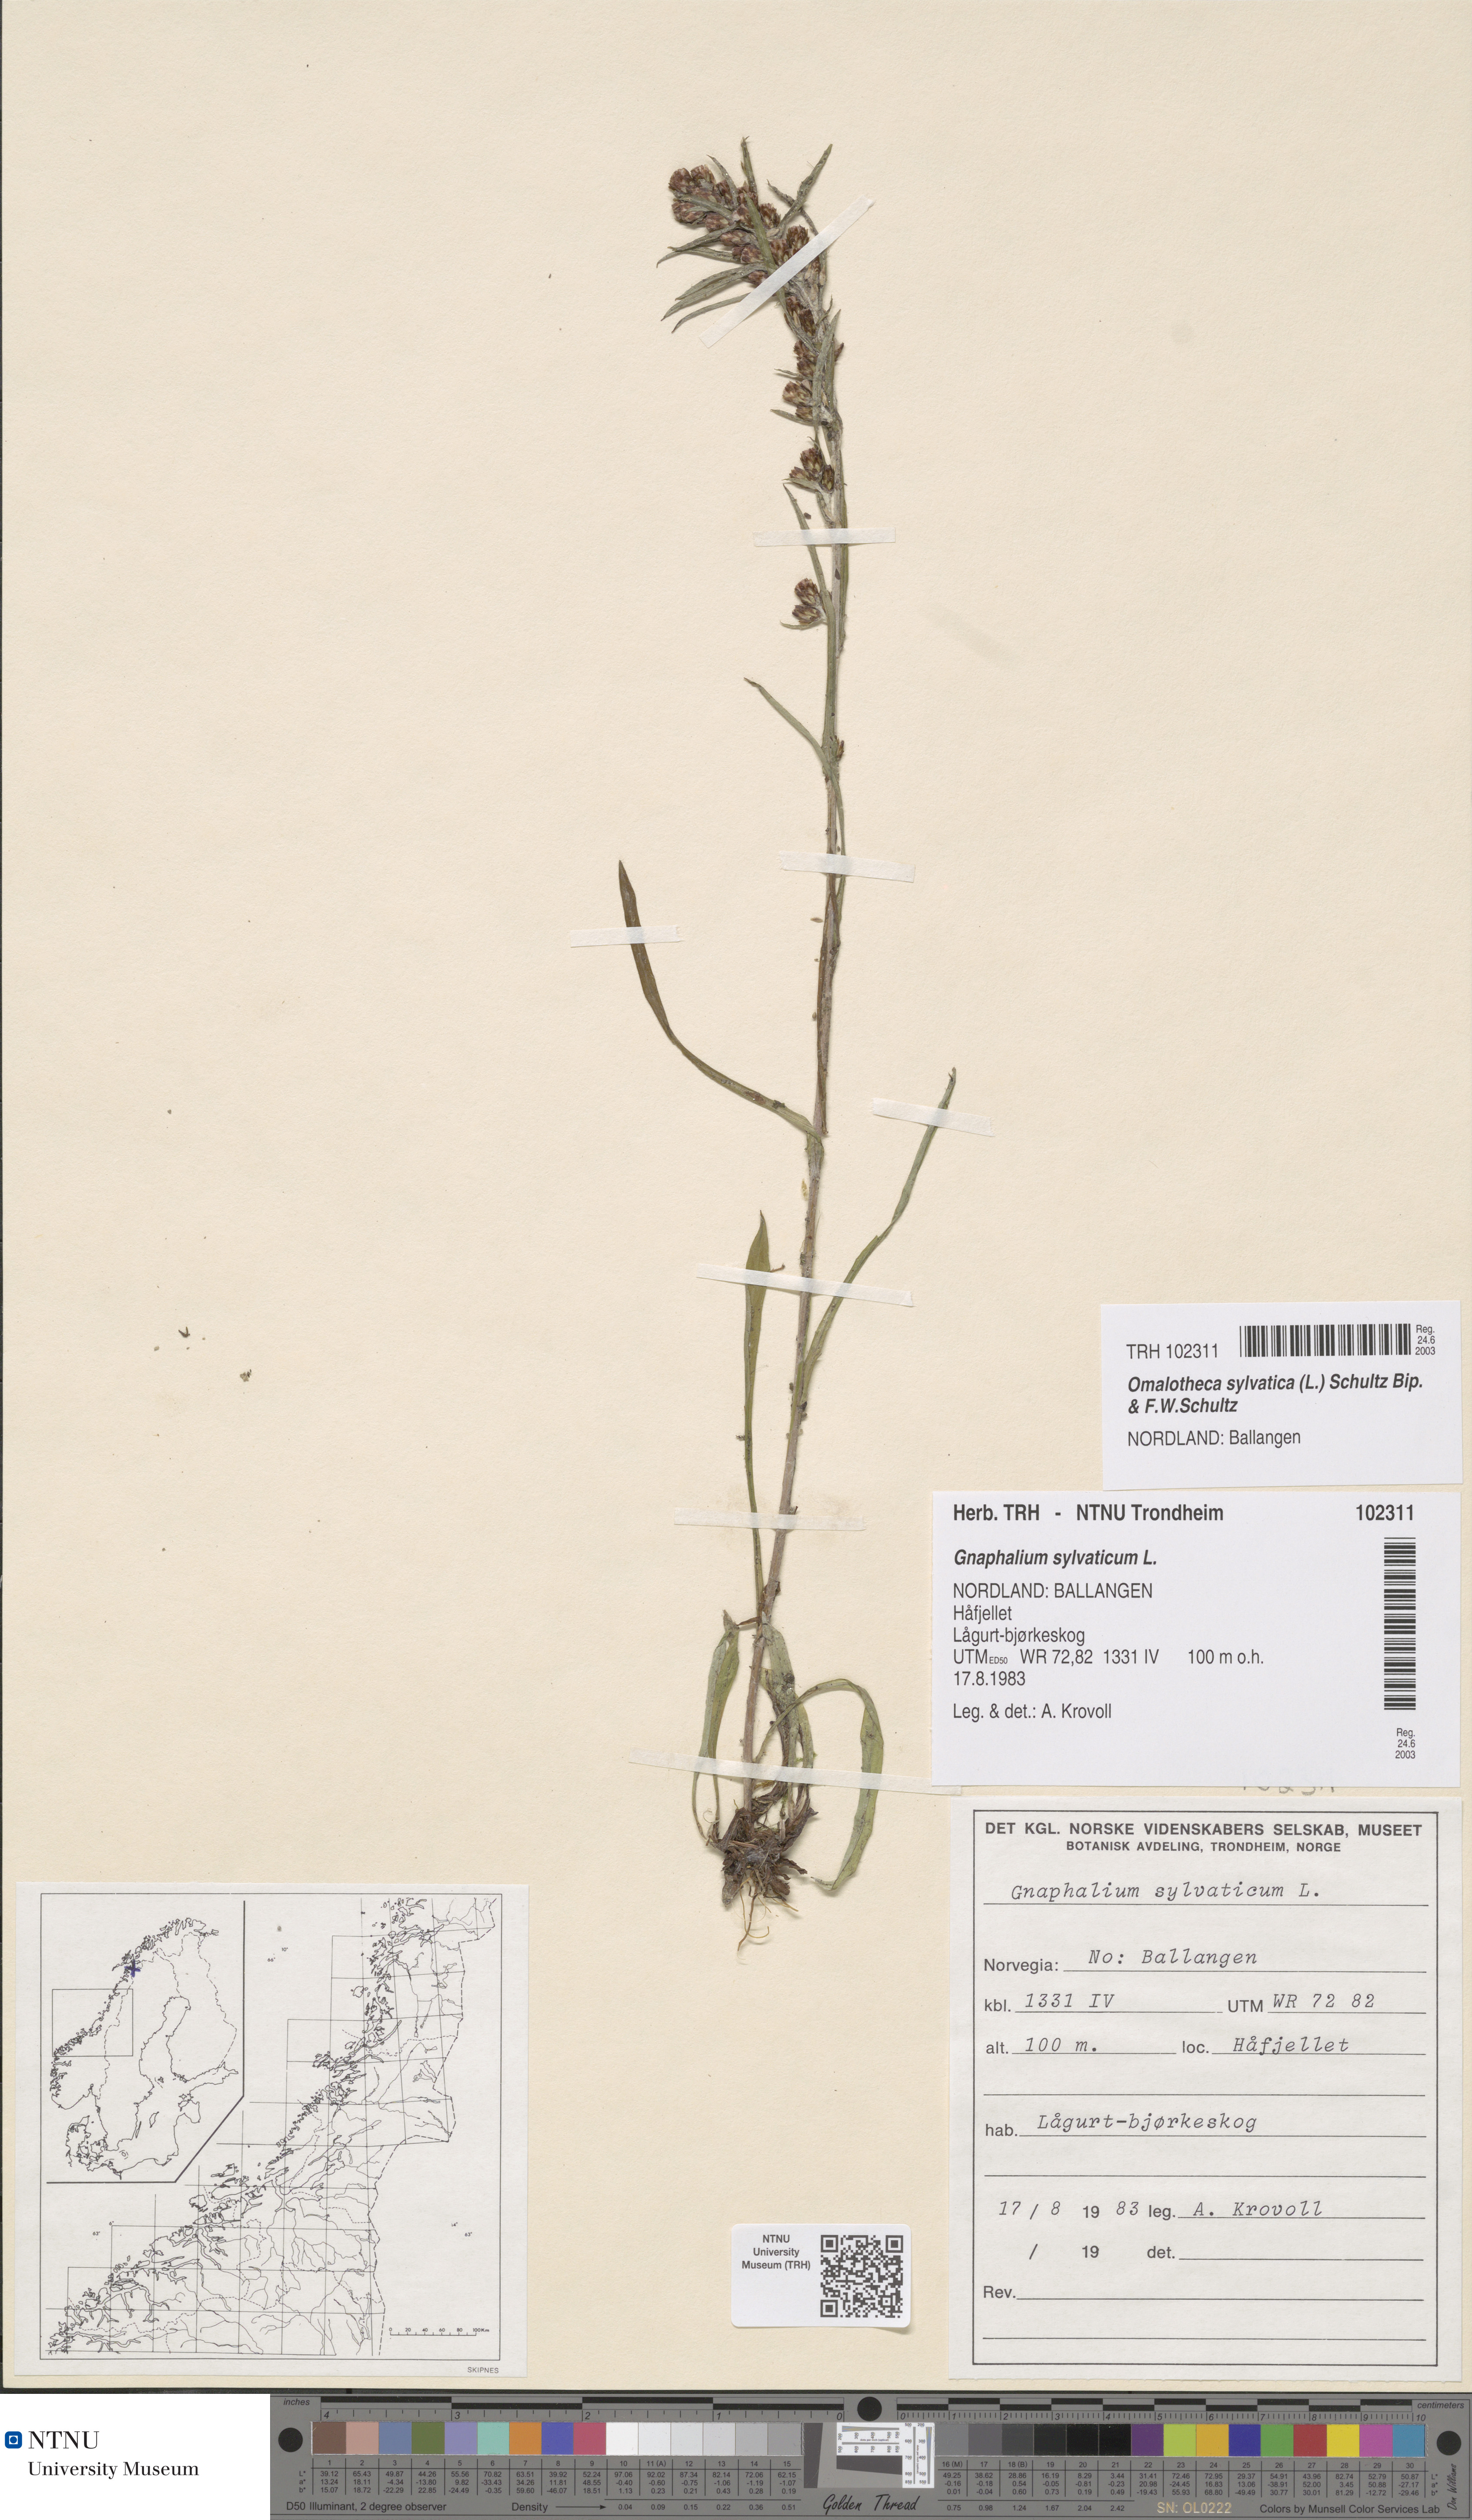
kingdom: Plantae
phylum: Tracheophyta
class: Magnoliopsida
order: Asterales
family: Asteraceae
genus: Omalotheca
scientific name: Omalotheca sylvatica
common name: Heath cudweed
